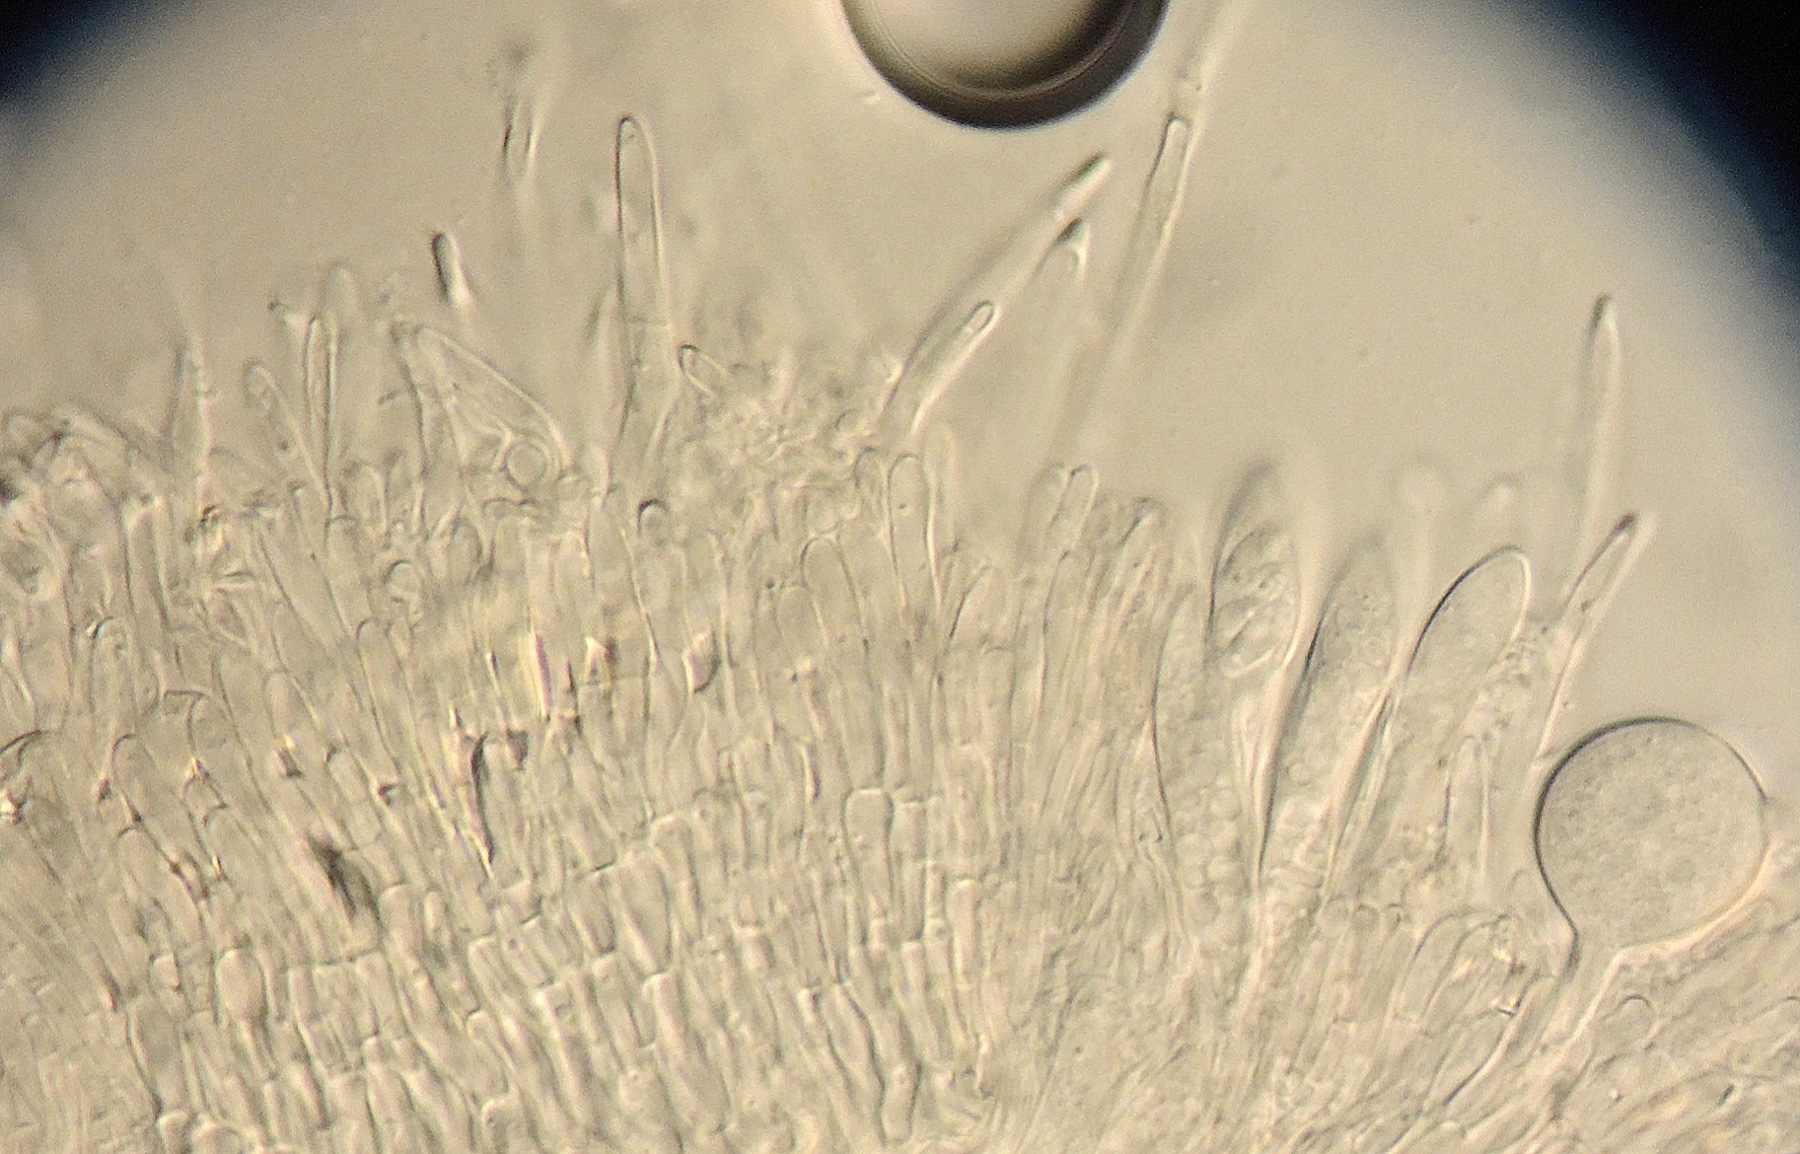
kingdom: Fungi
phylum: Ascomycota
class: Leotiomycetes
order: Helotiales
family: Hyaloscyphaceae
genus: Protounguicularia
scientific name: Protounguicularia transiens
